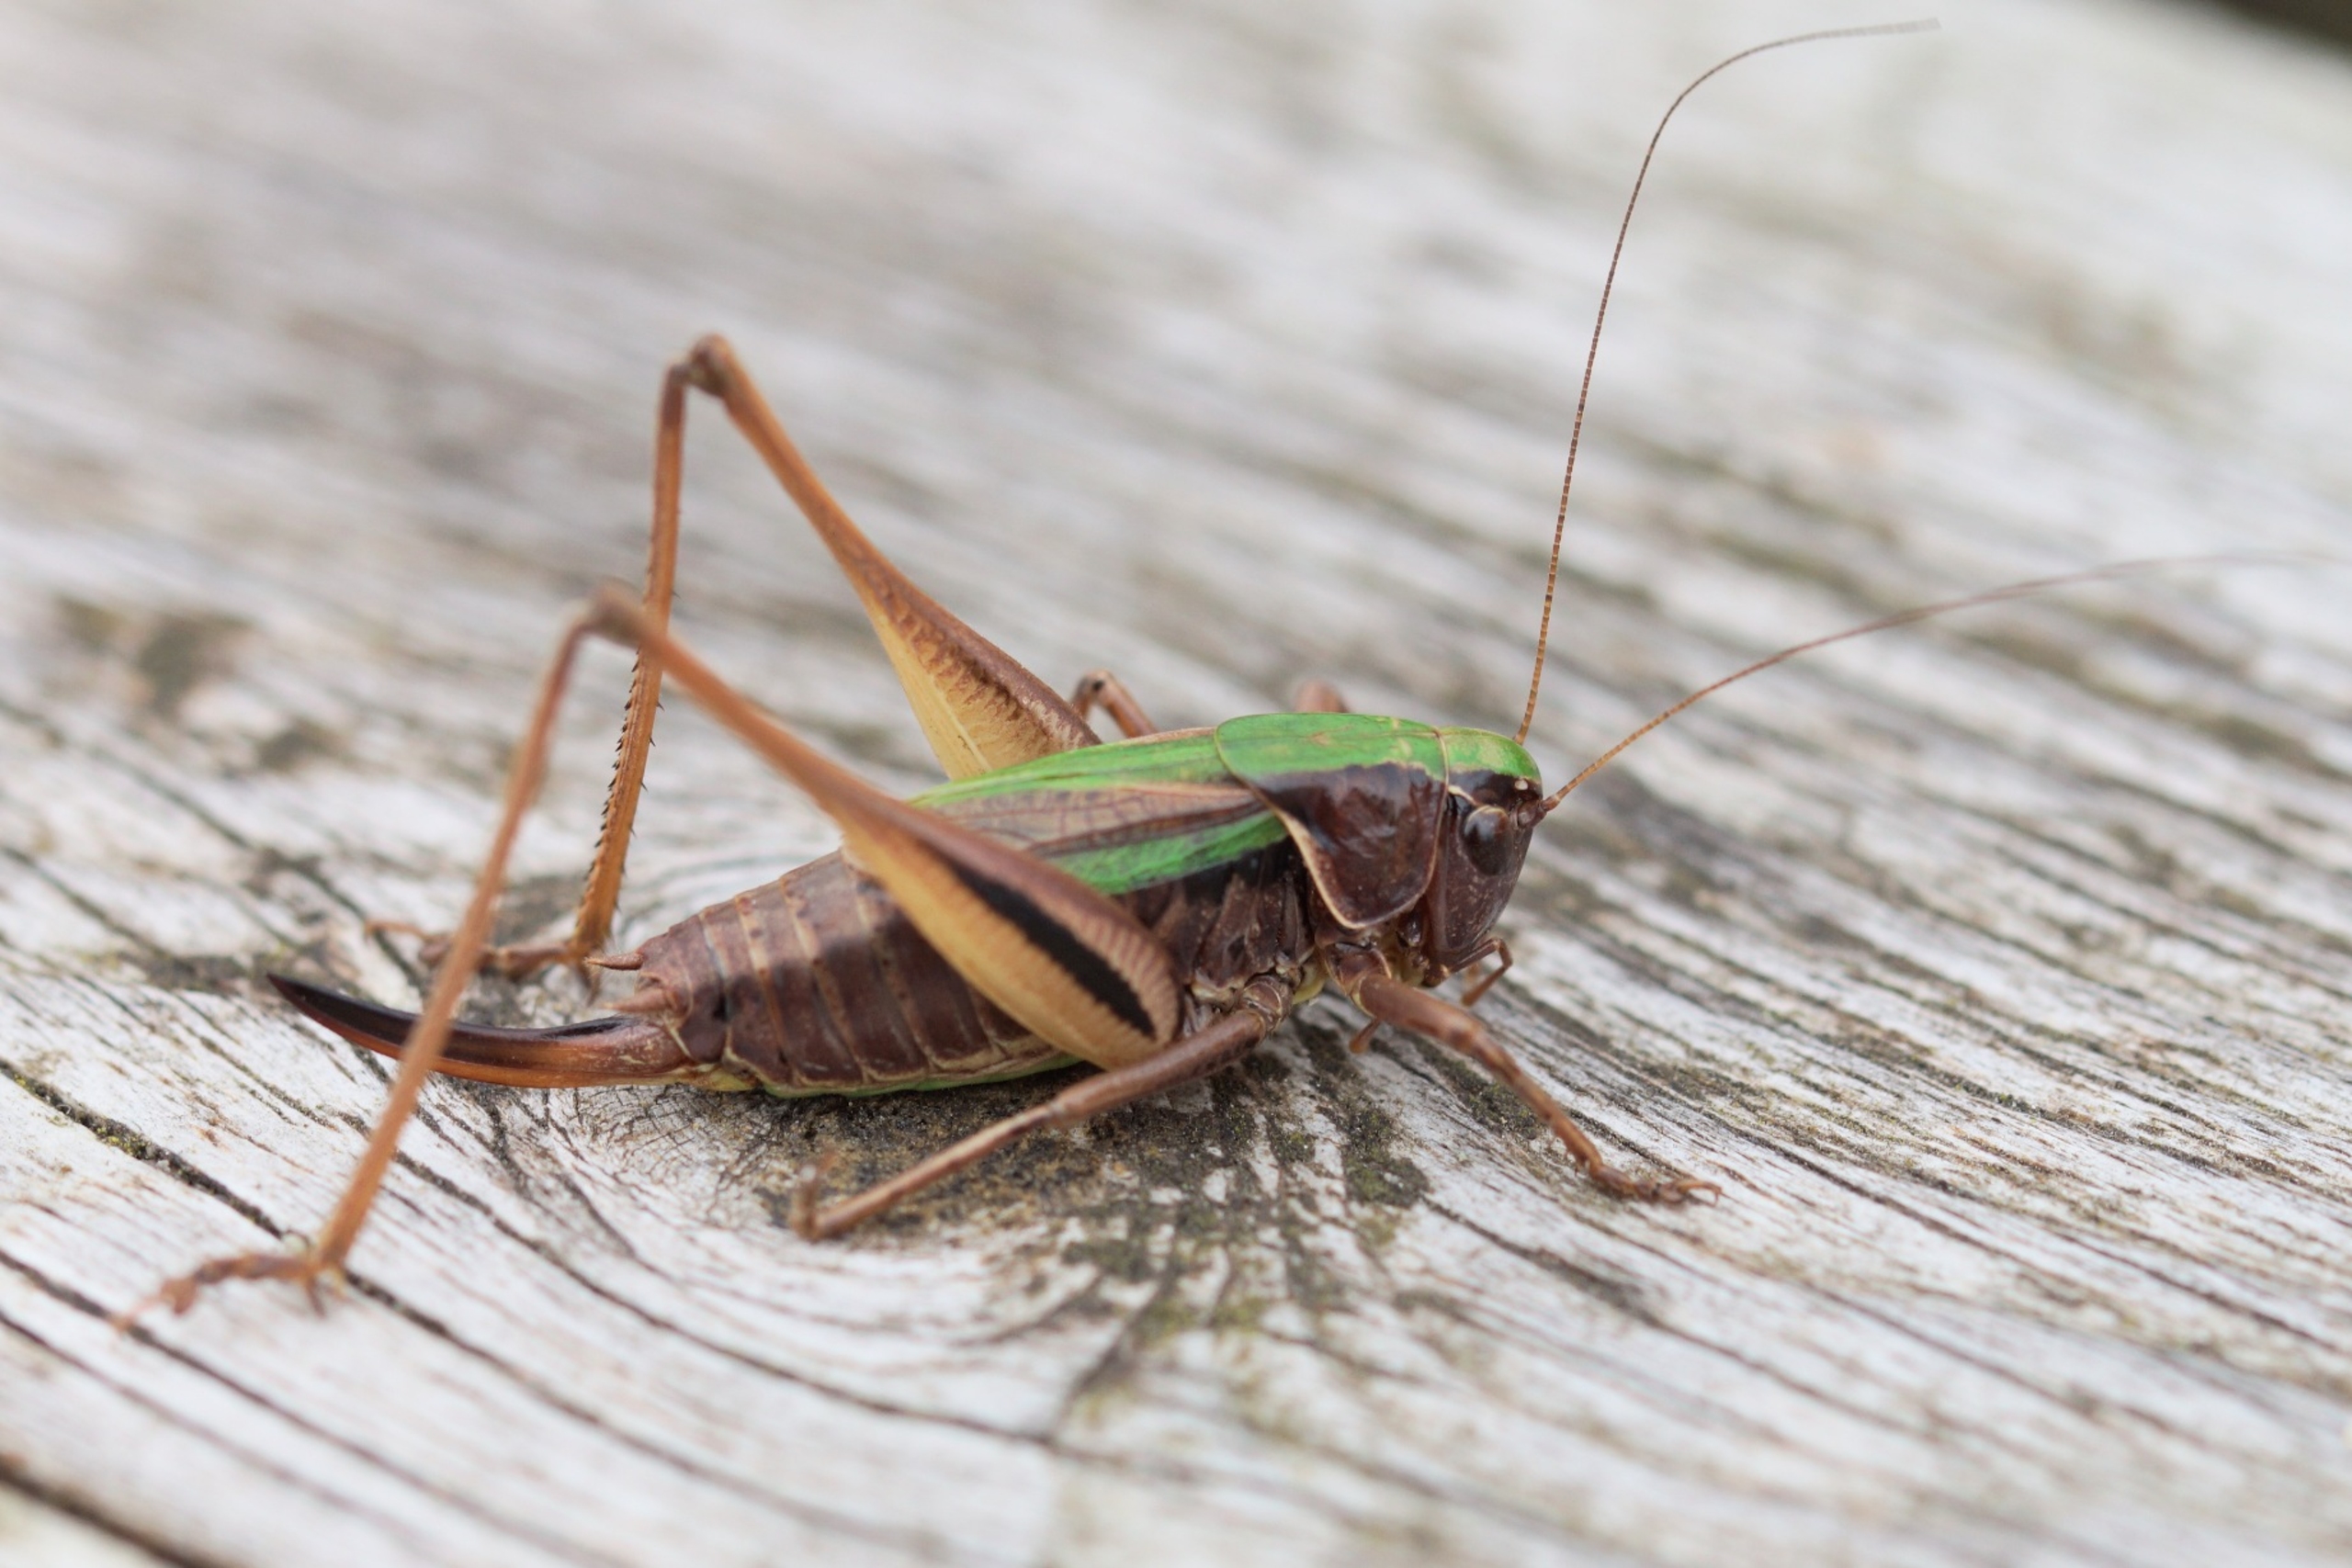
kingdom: Animalia
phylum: Arthropoda
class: Insecta
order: Orthoptera
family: Tettigoniidae
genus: Metrioptera
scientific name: Metrioptera brachyptera
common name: Hedegræshoppe
